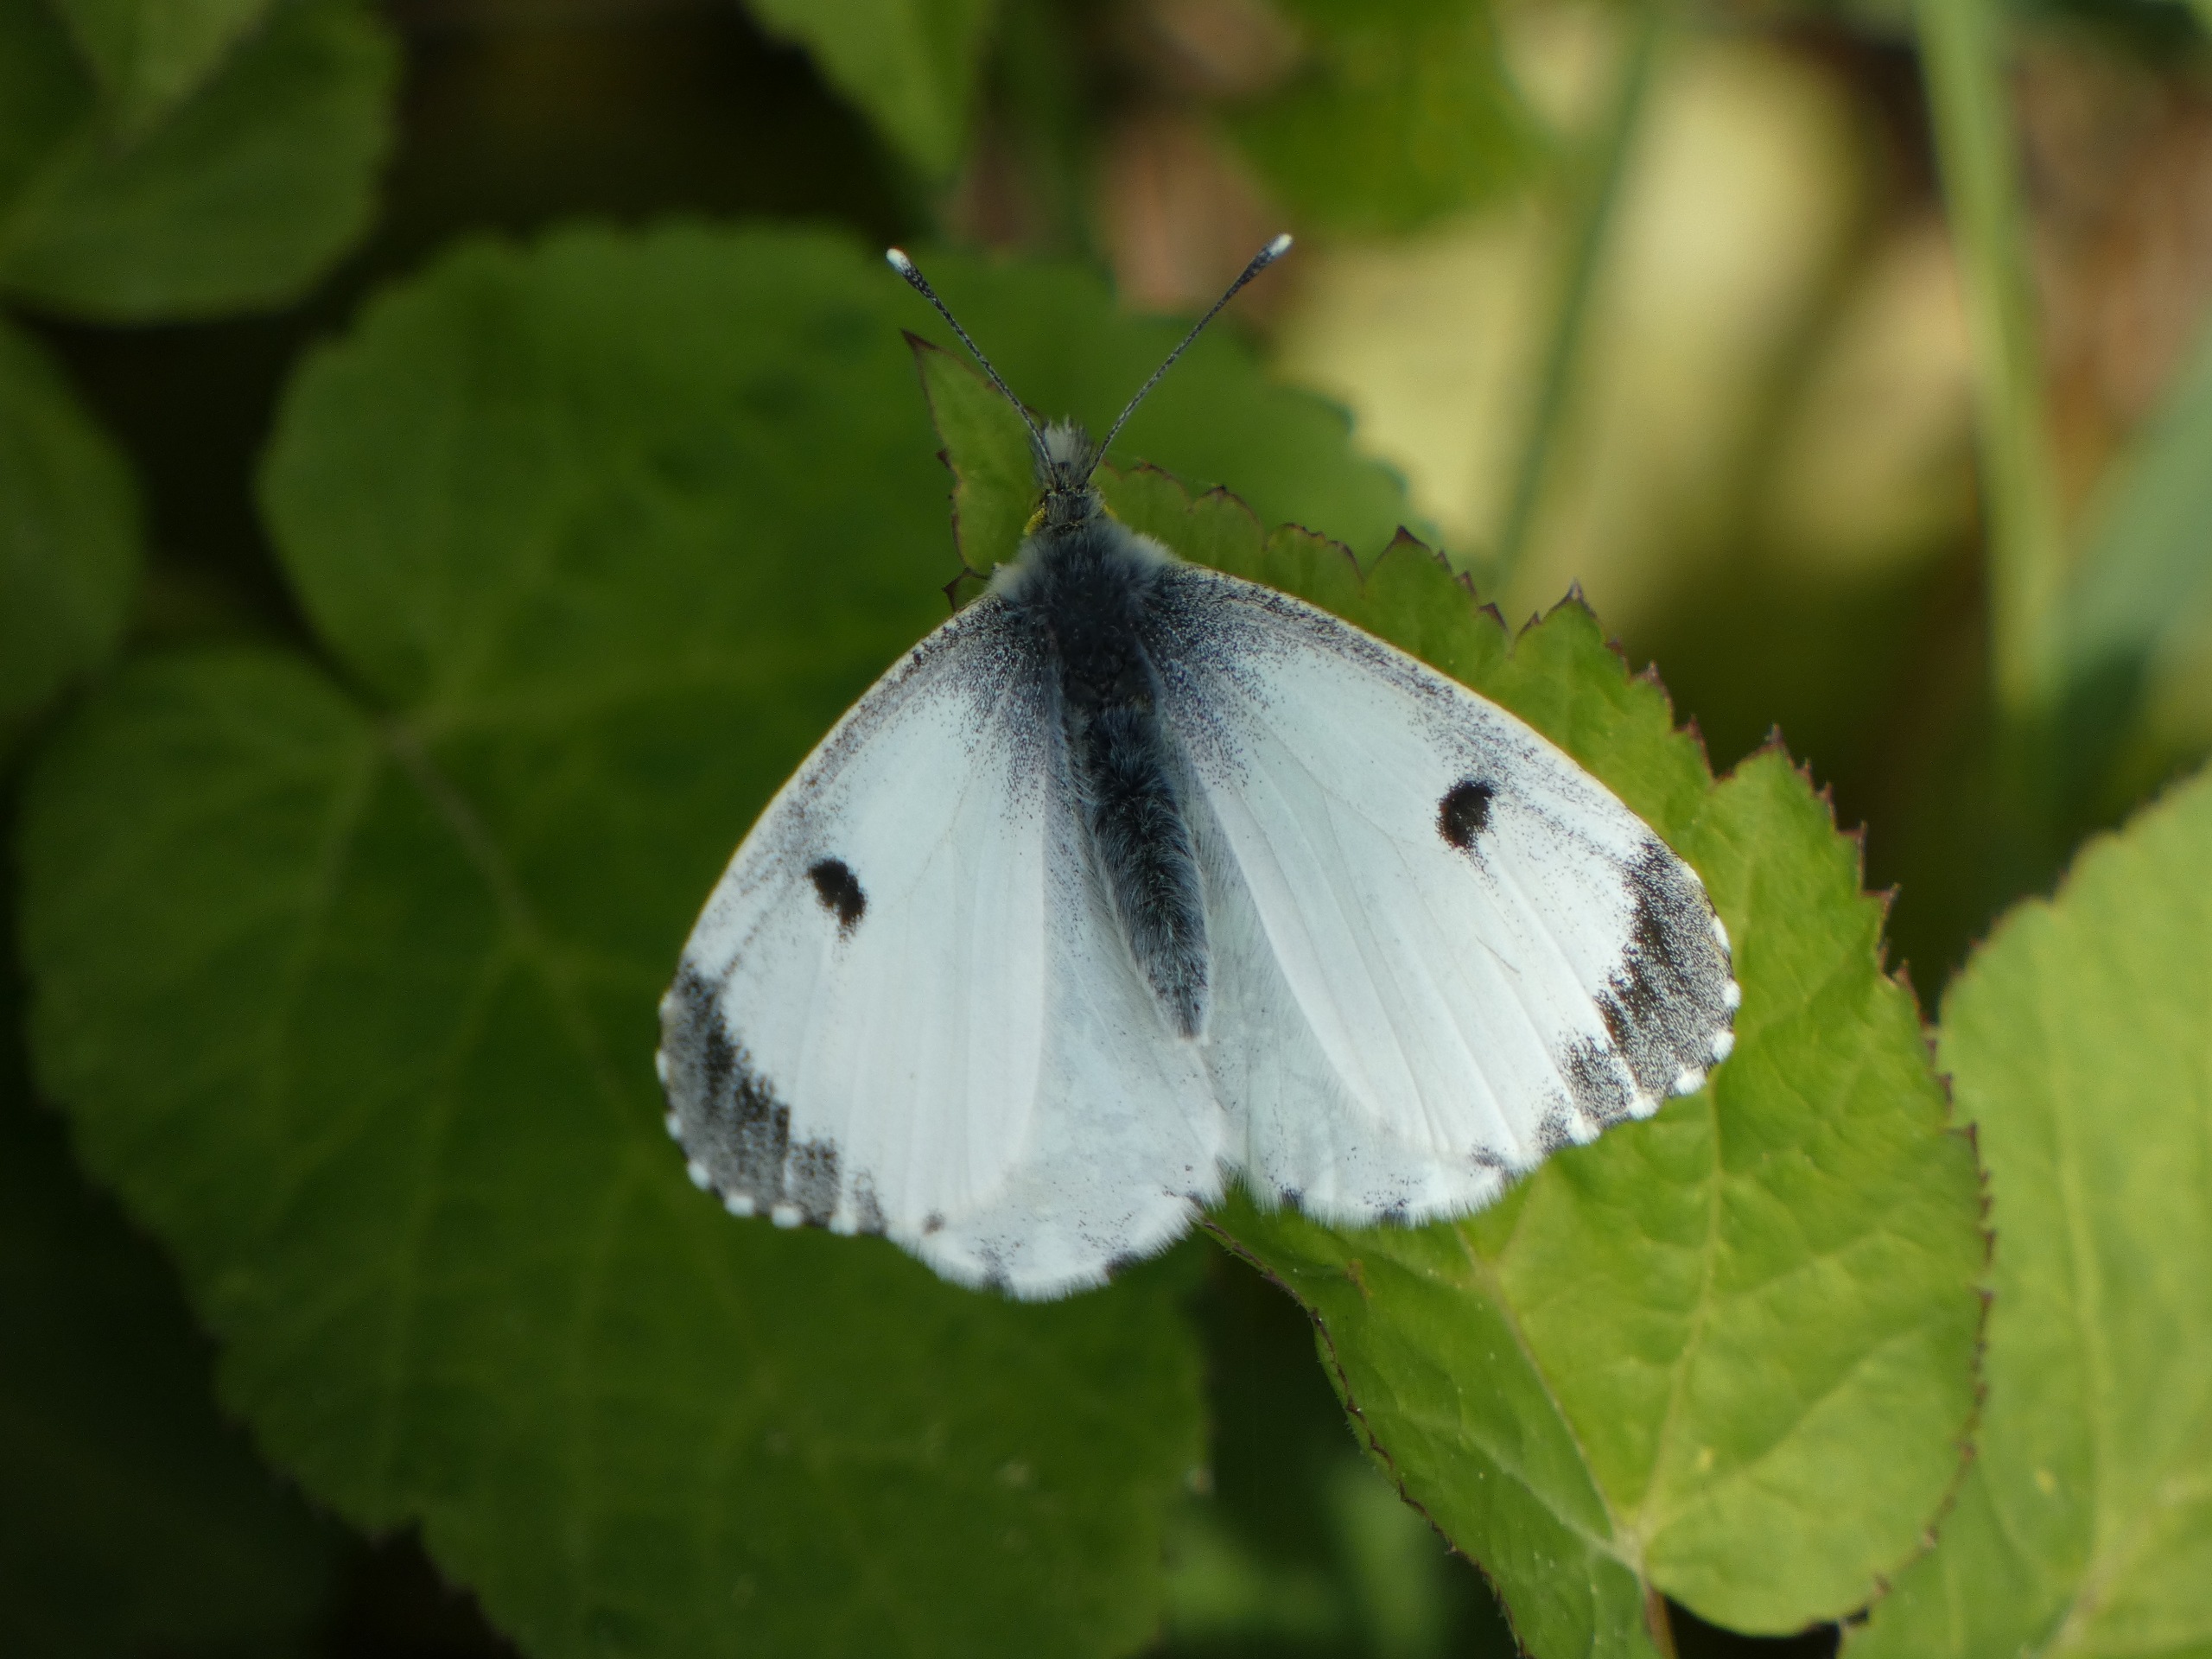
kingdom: Animalia
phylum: Arthropoda
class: Insecta
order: Lepidoptera
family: Pieridae
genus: Anthocharis
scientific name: Anthocharis cardamines
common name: Aurora
